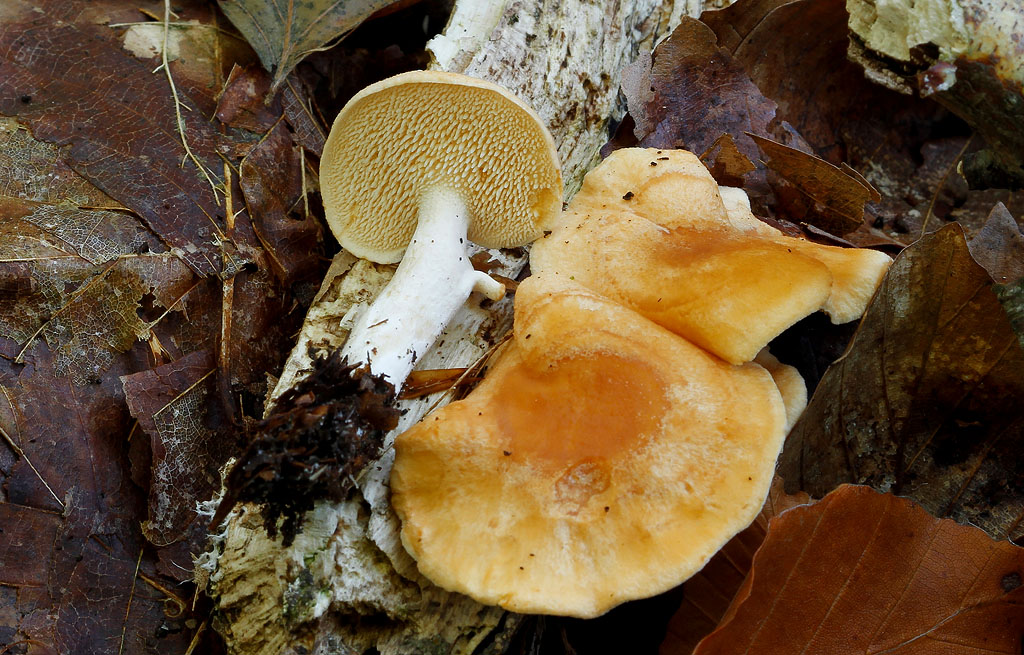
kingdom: Fungi
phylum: Basidiomycota
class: Agaricomycetes
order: Cantharellales
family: Hydnaceae
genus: Hydnum
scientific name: Hydnum ellipsosporum
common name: tandet pigsvamp
